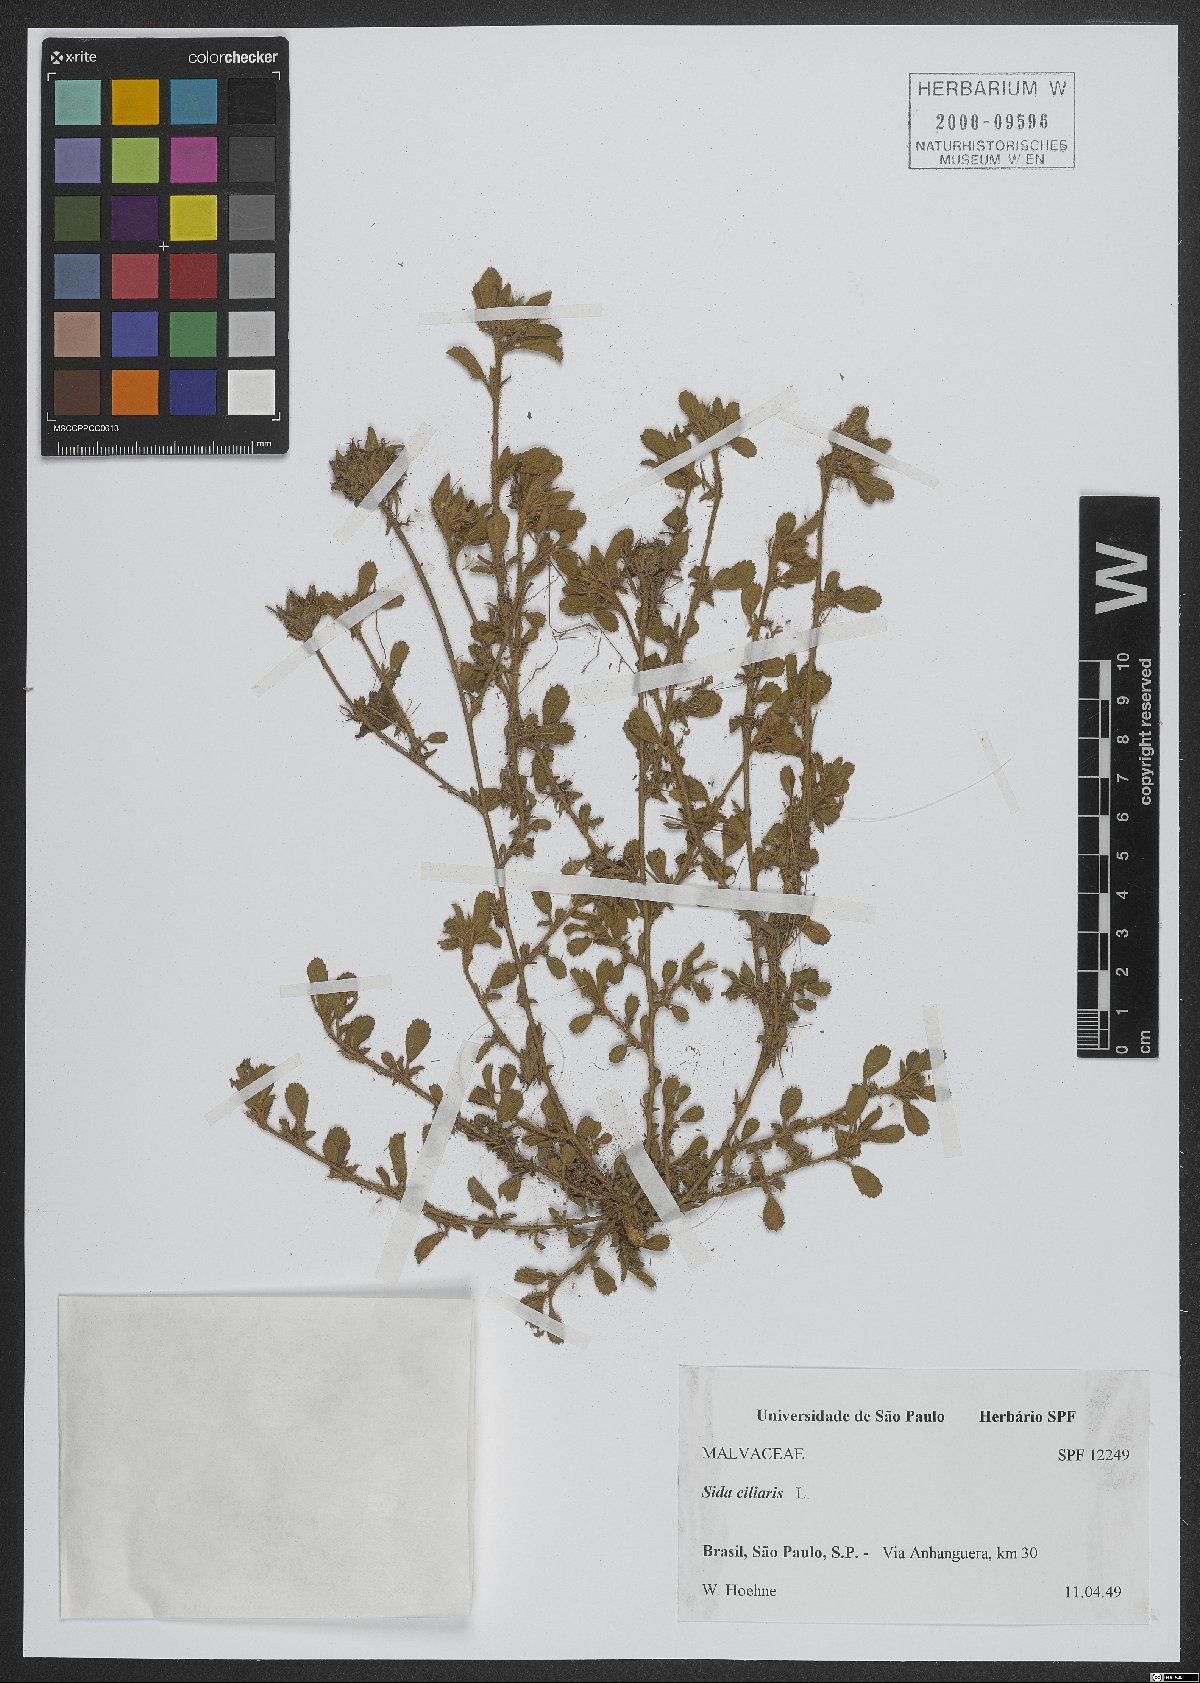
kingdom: Plantae
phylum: Tracheophyta
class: Magnoliopsida
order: Malvales
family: Malvaceae
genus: Sida
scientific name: Sida ciliaris
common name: Bracted fanpetals
